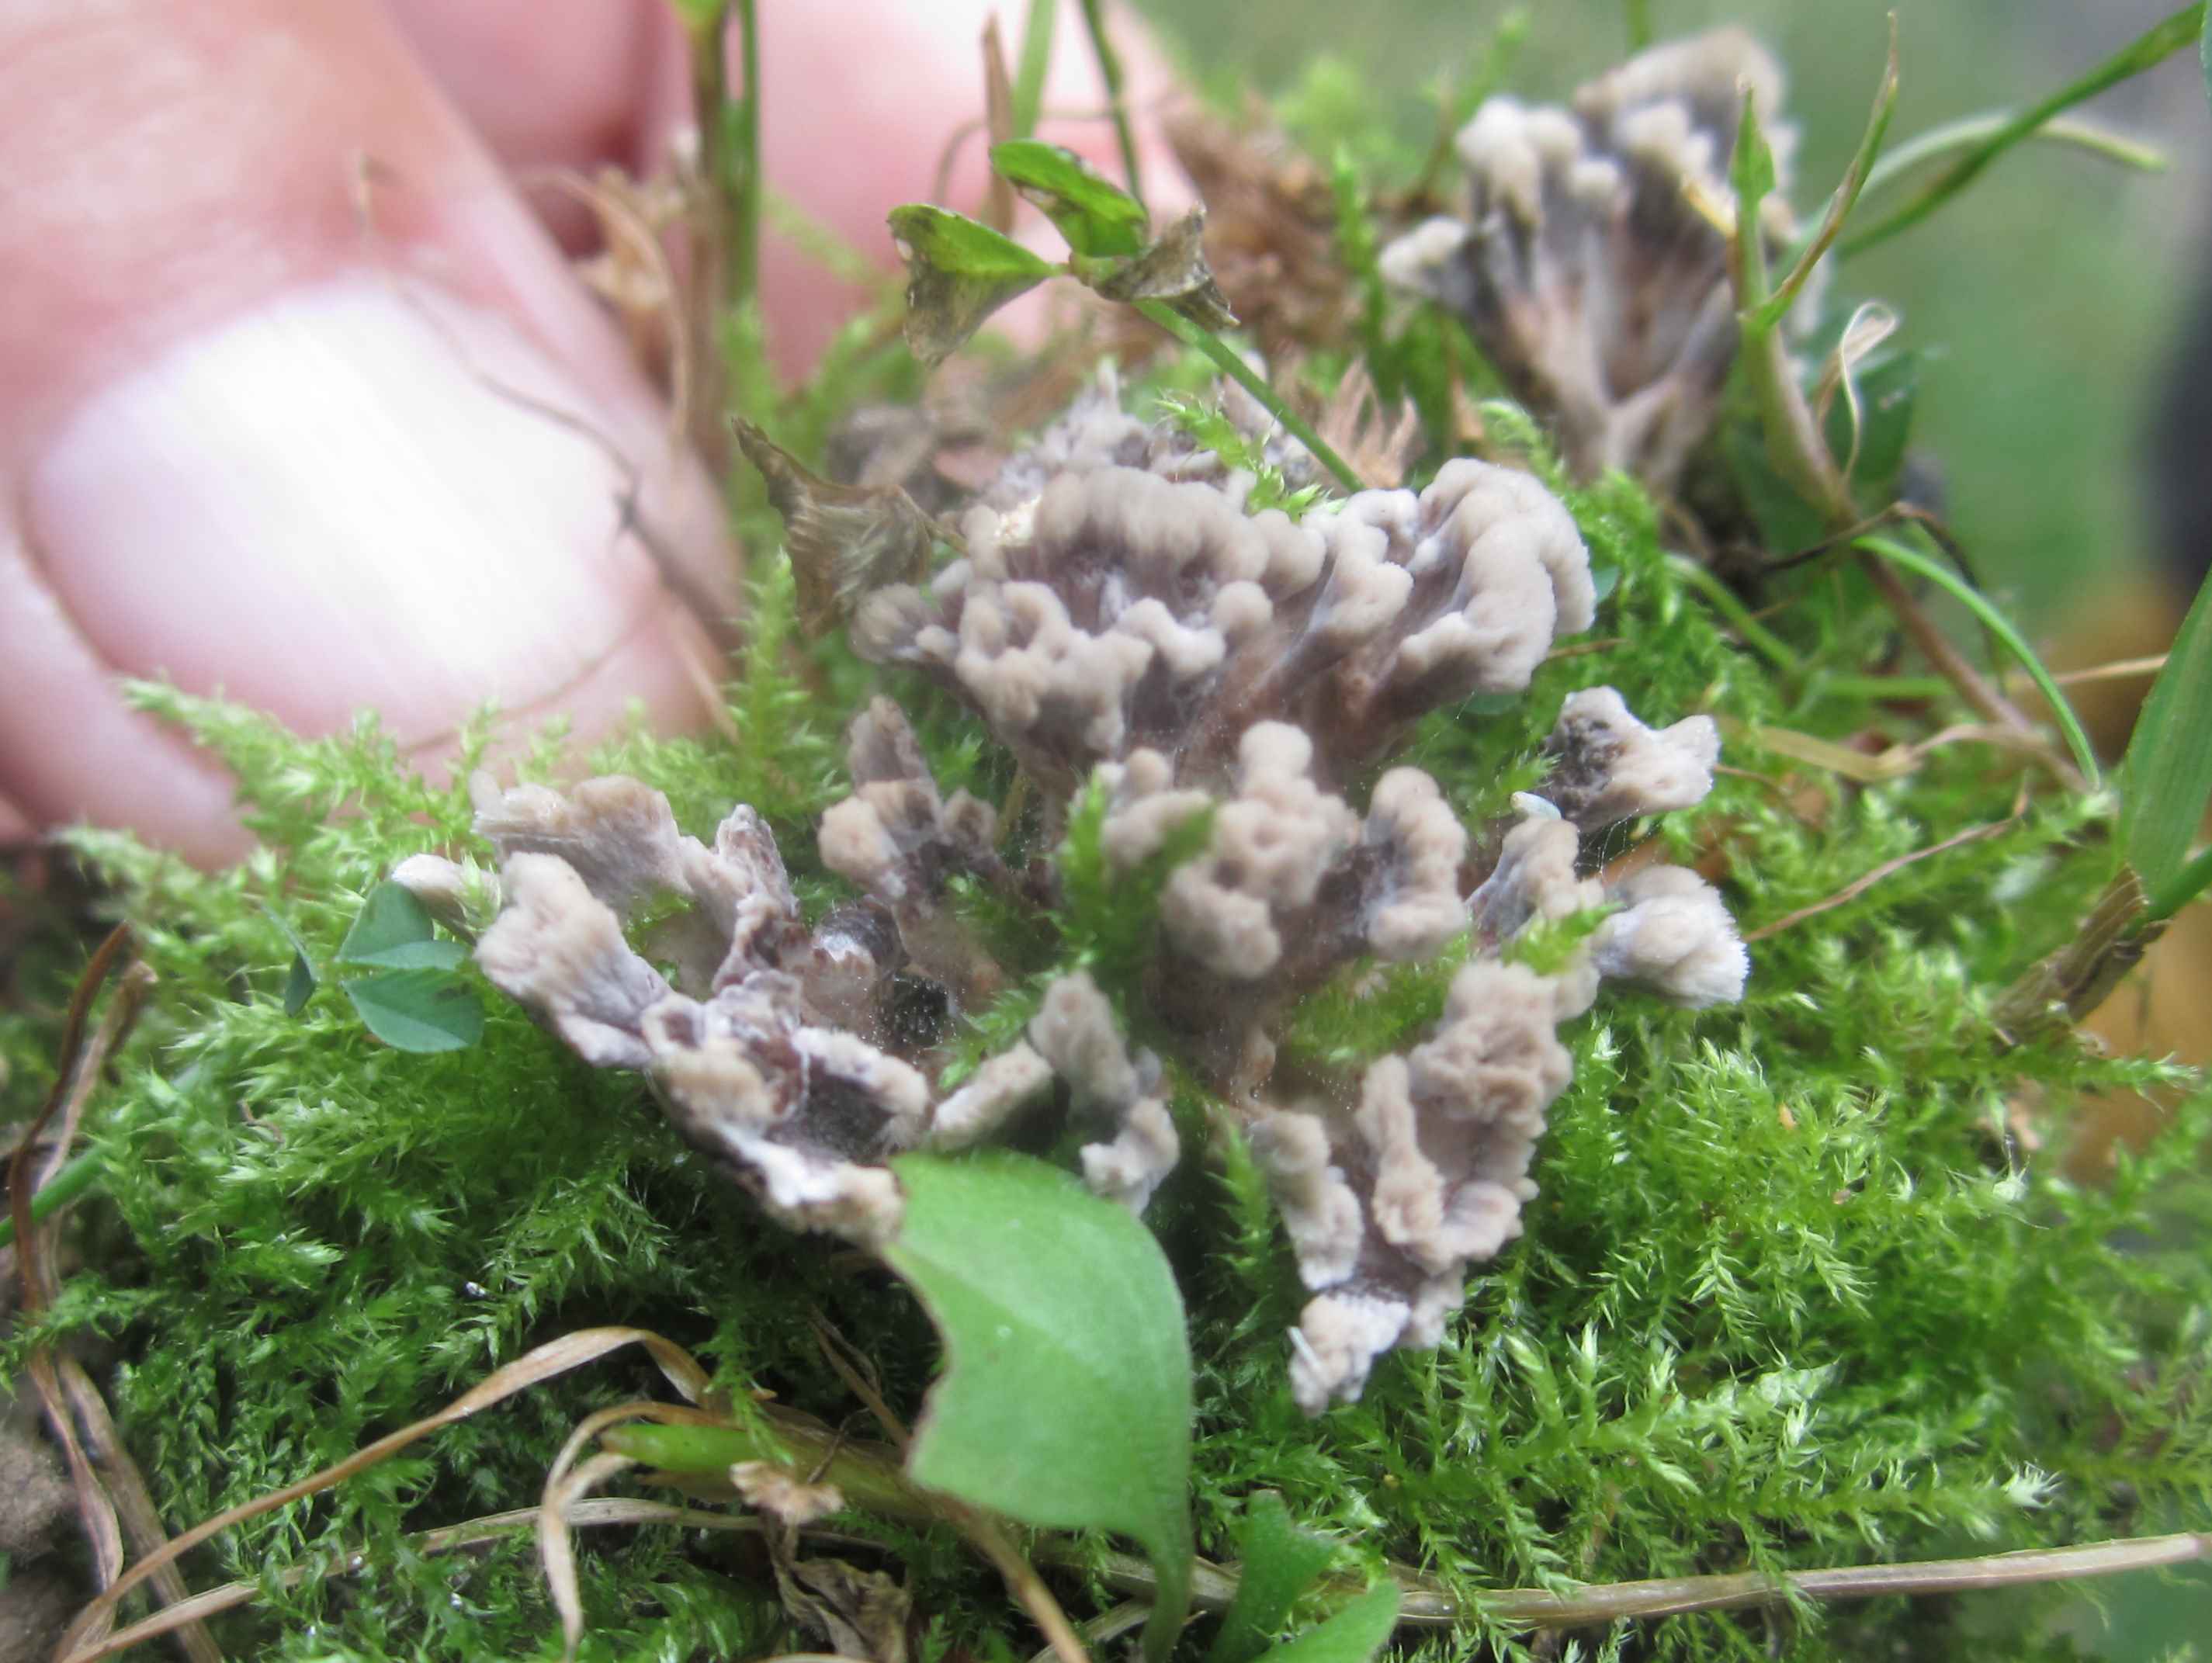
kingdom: Fungi
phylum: Basidiomycota
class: Agaricomycetes
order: Thelephorales
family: Thelephoraceae
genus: Thelephora
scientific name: Thelephora anthocephala
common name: busk-frynsesvamp
